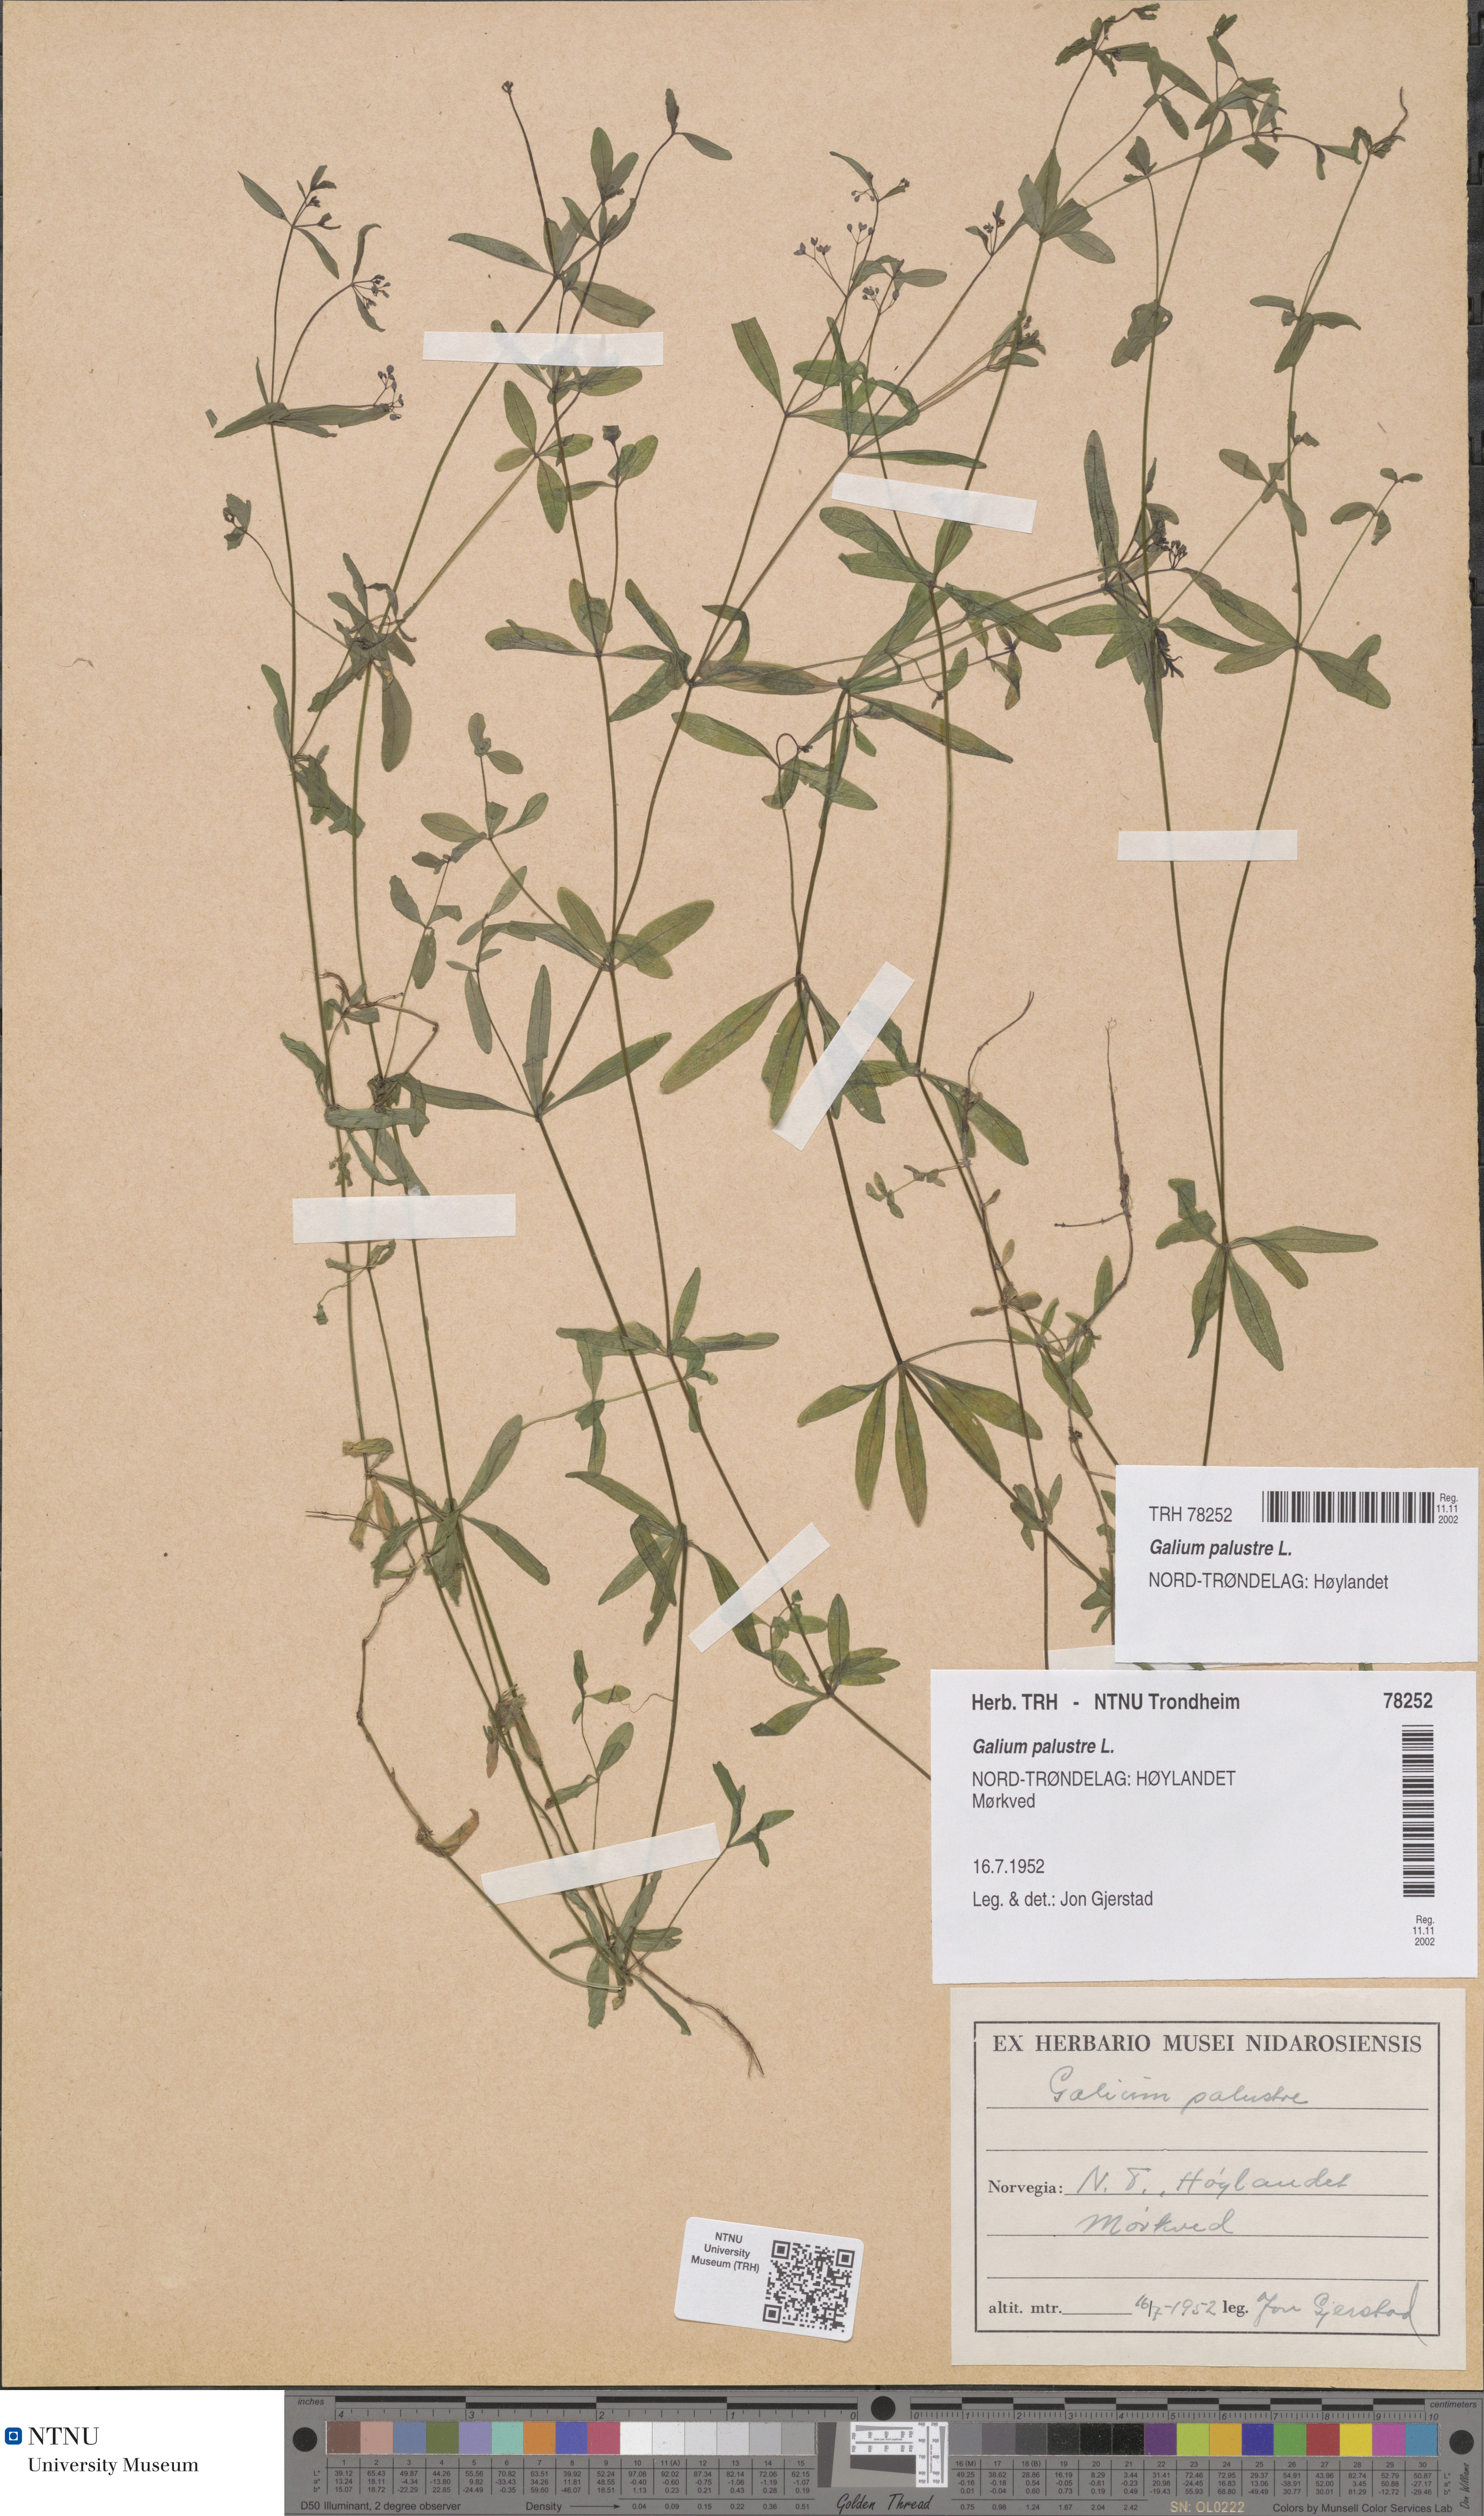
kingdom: Plantae
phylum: Tracheophyta
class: Magnoliopsida
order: Gentianales
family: Rubiaceae
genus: Galium
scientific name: Galium palustre
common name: Common marsh-bedstraw
